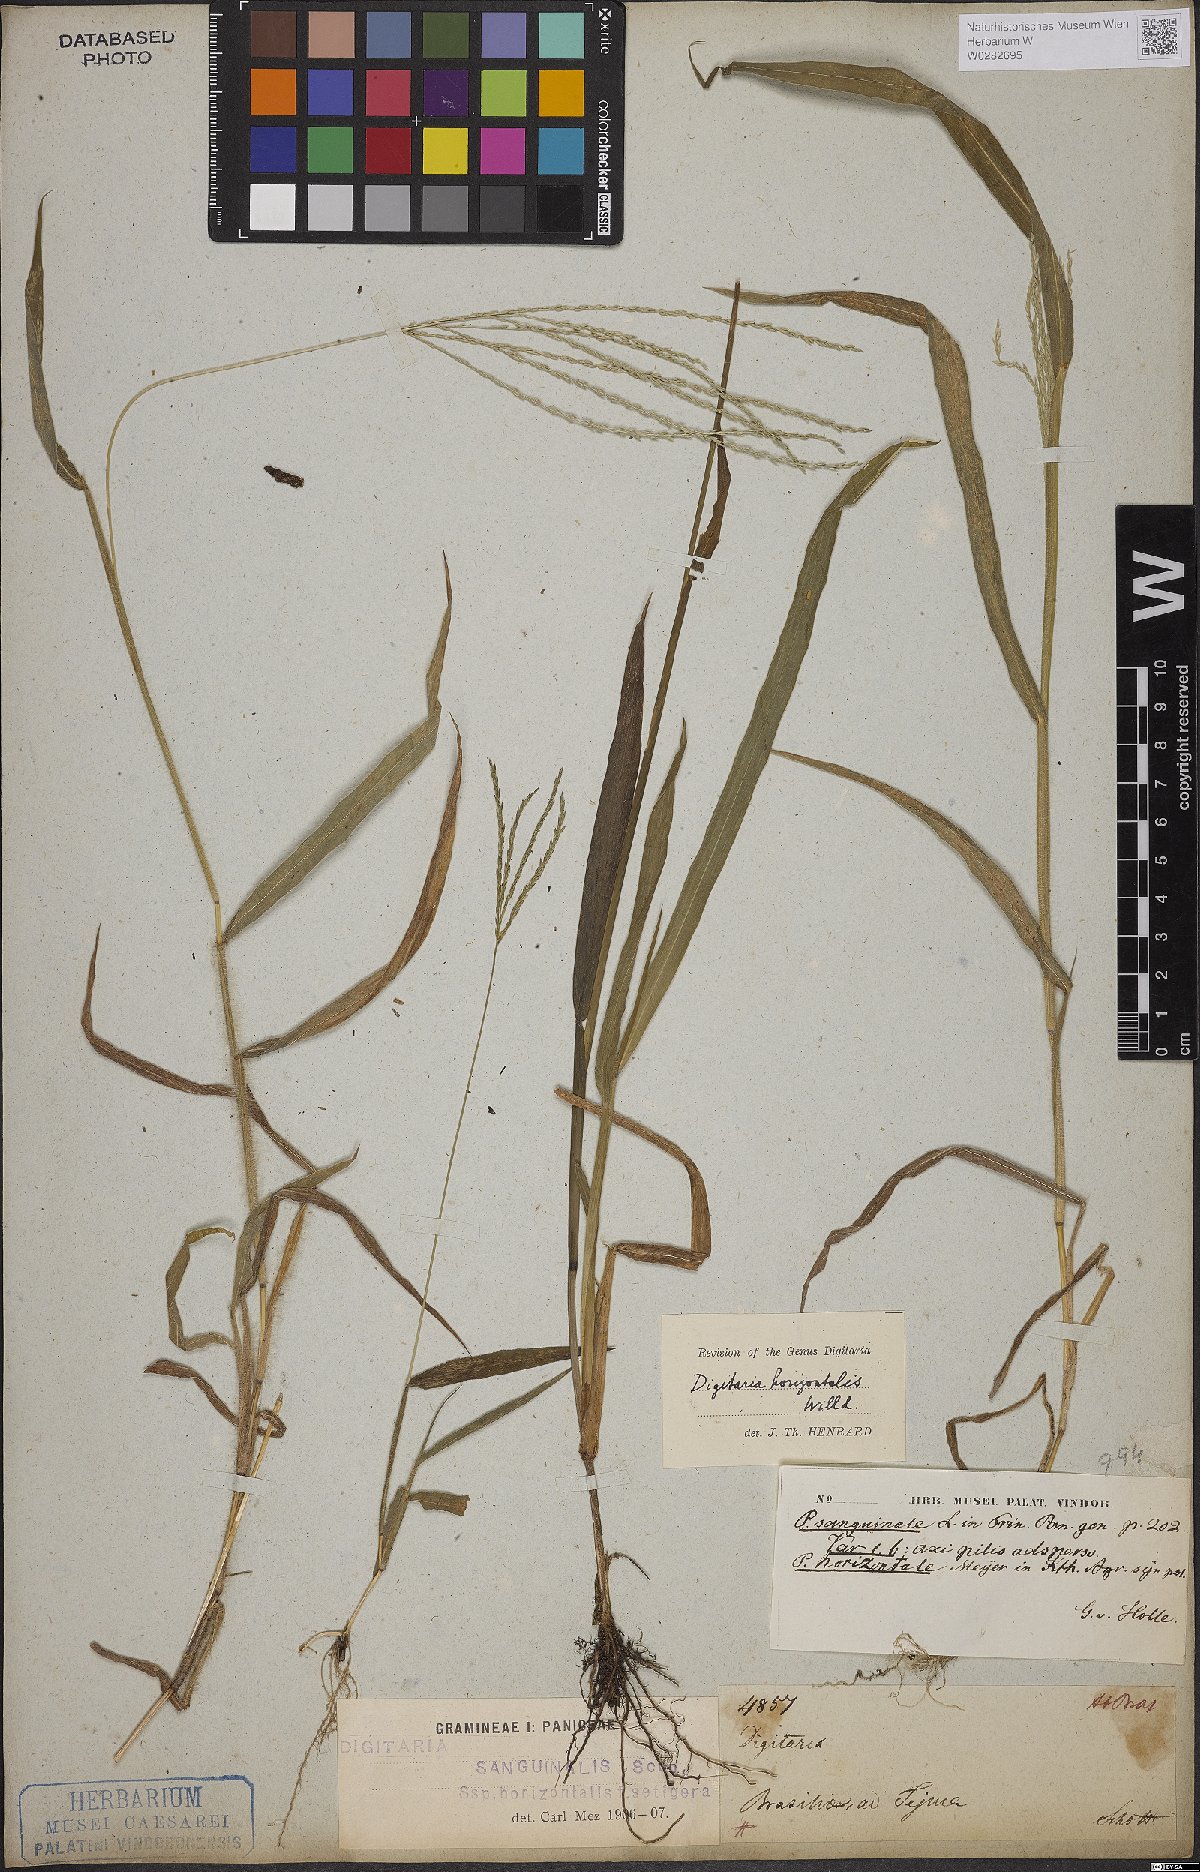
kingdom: Plantae
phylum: Tracheophyta
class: Liliopsida
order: Poales
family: Poaceae
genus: Digitaria
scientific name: Digitaria horizontalis
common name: Jamaican crabgrass
